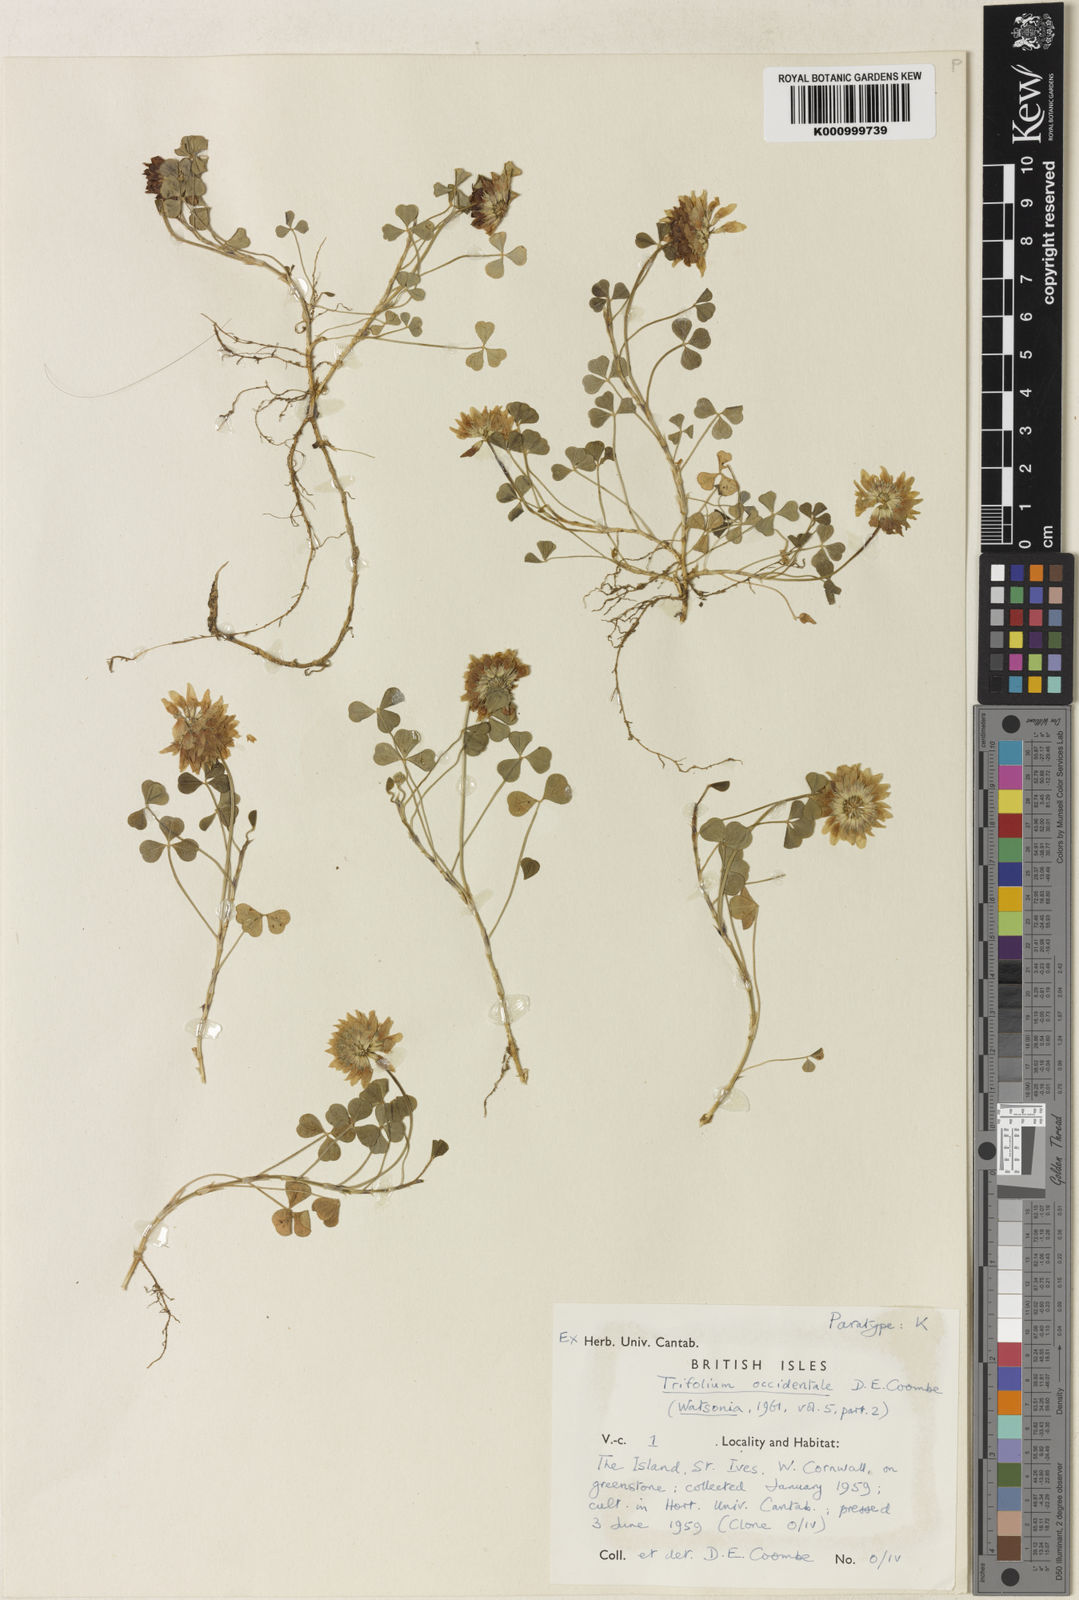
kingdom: Plantae
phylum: Tracheophyta
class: Magnoliopsida
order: Fabales
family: Fabaceae
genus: Trifolium
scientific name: Trifolium occidentale
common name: Western clover
